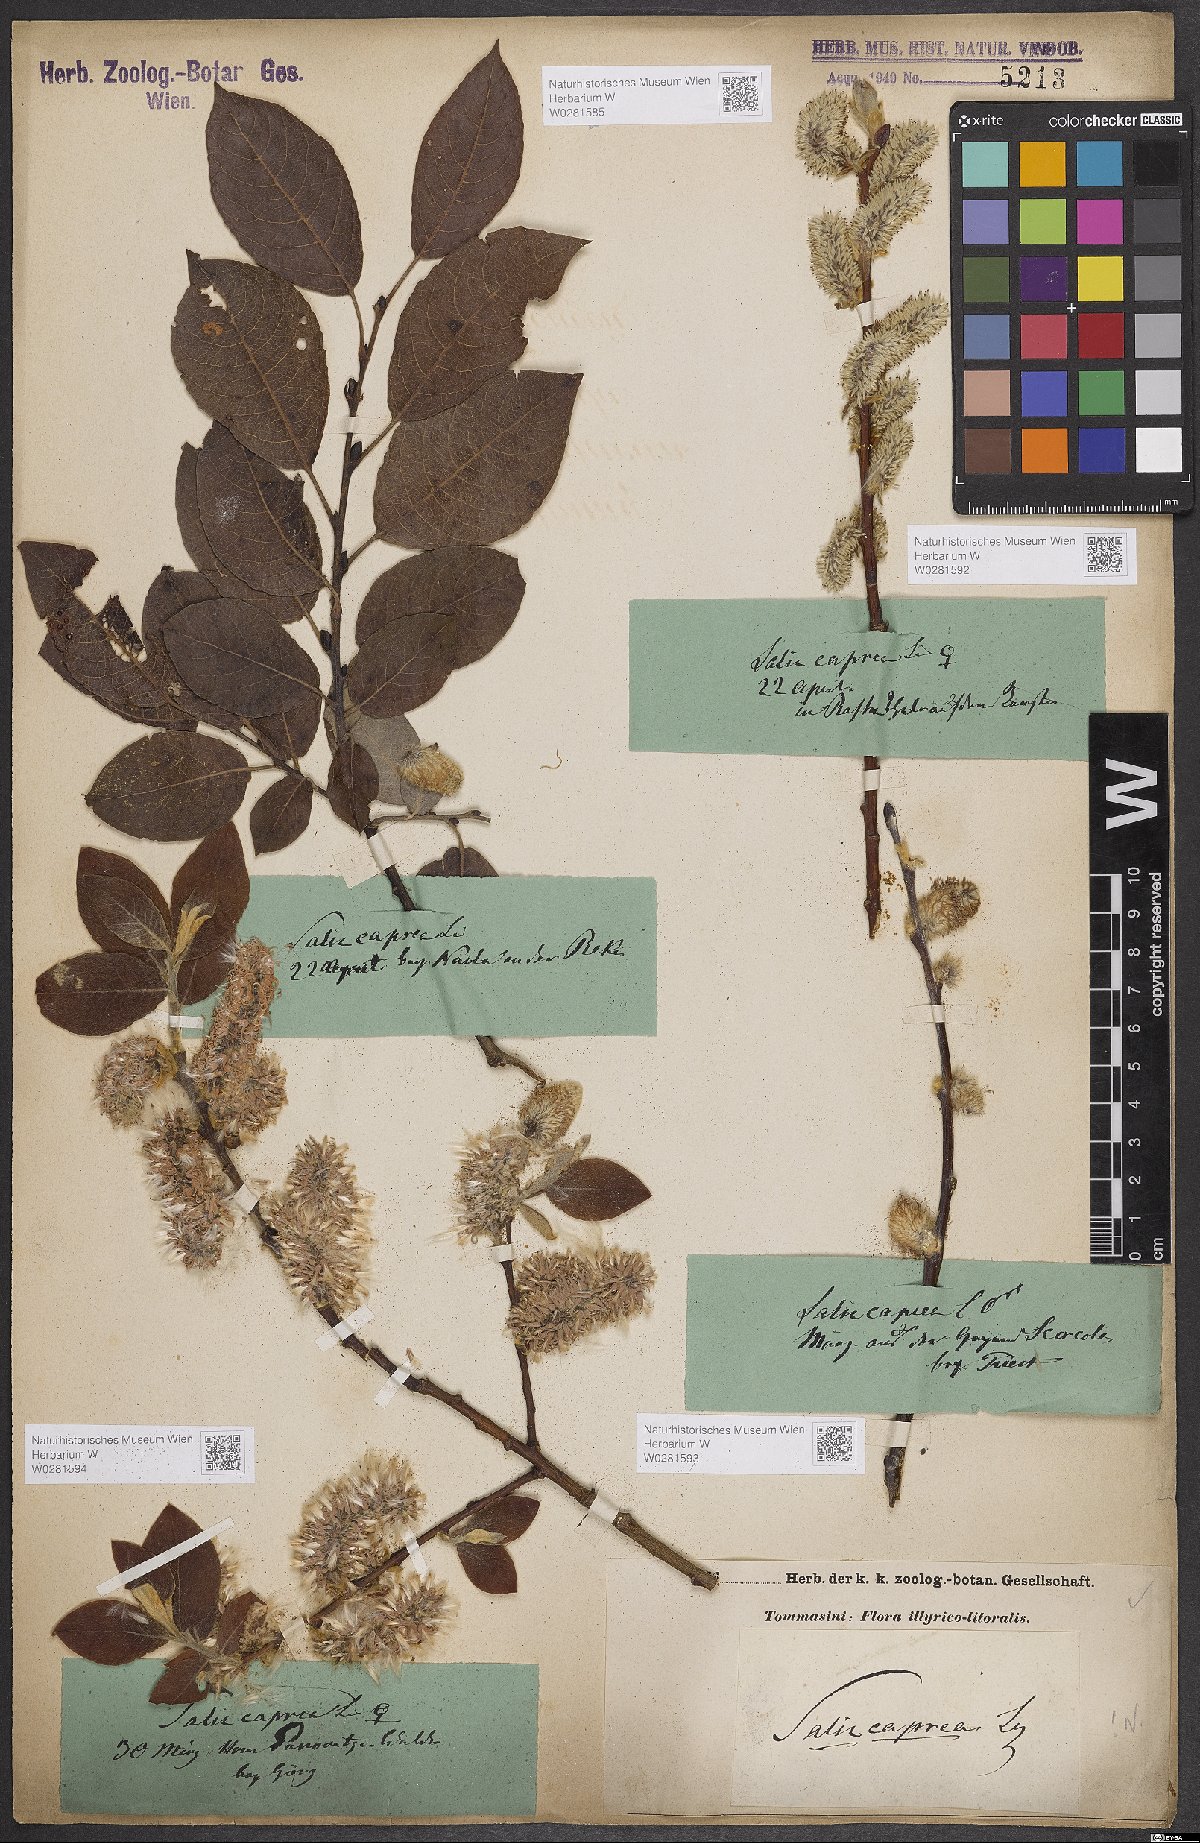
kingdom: Plantae
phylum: Tracheophyta
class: Magnoliopsida
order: Malpighiales
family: Salicaceae
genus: Salix
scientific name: Salix caprea
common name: Goat willow
